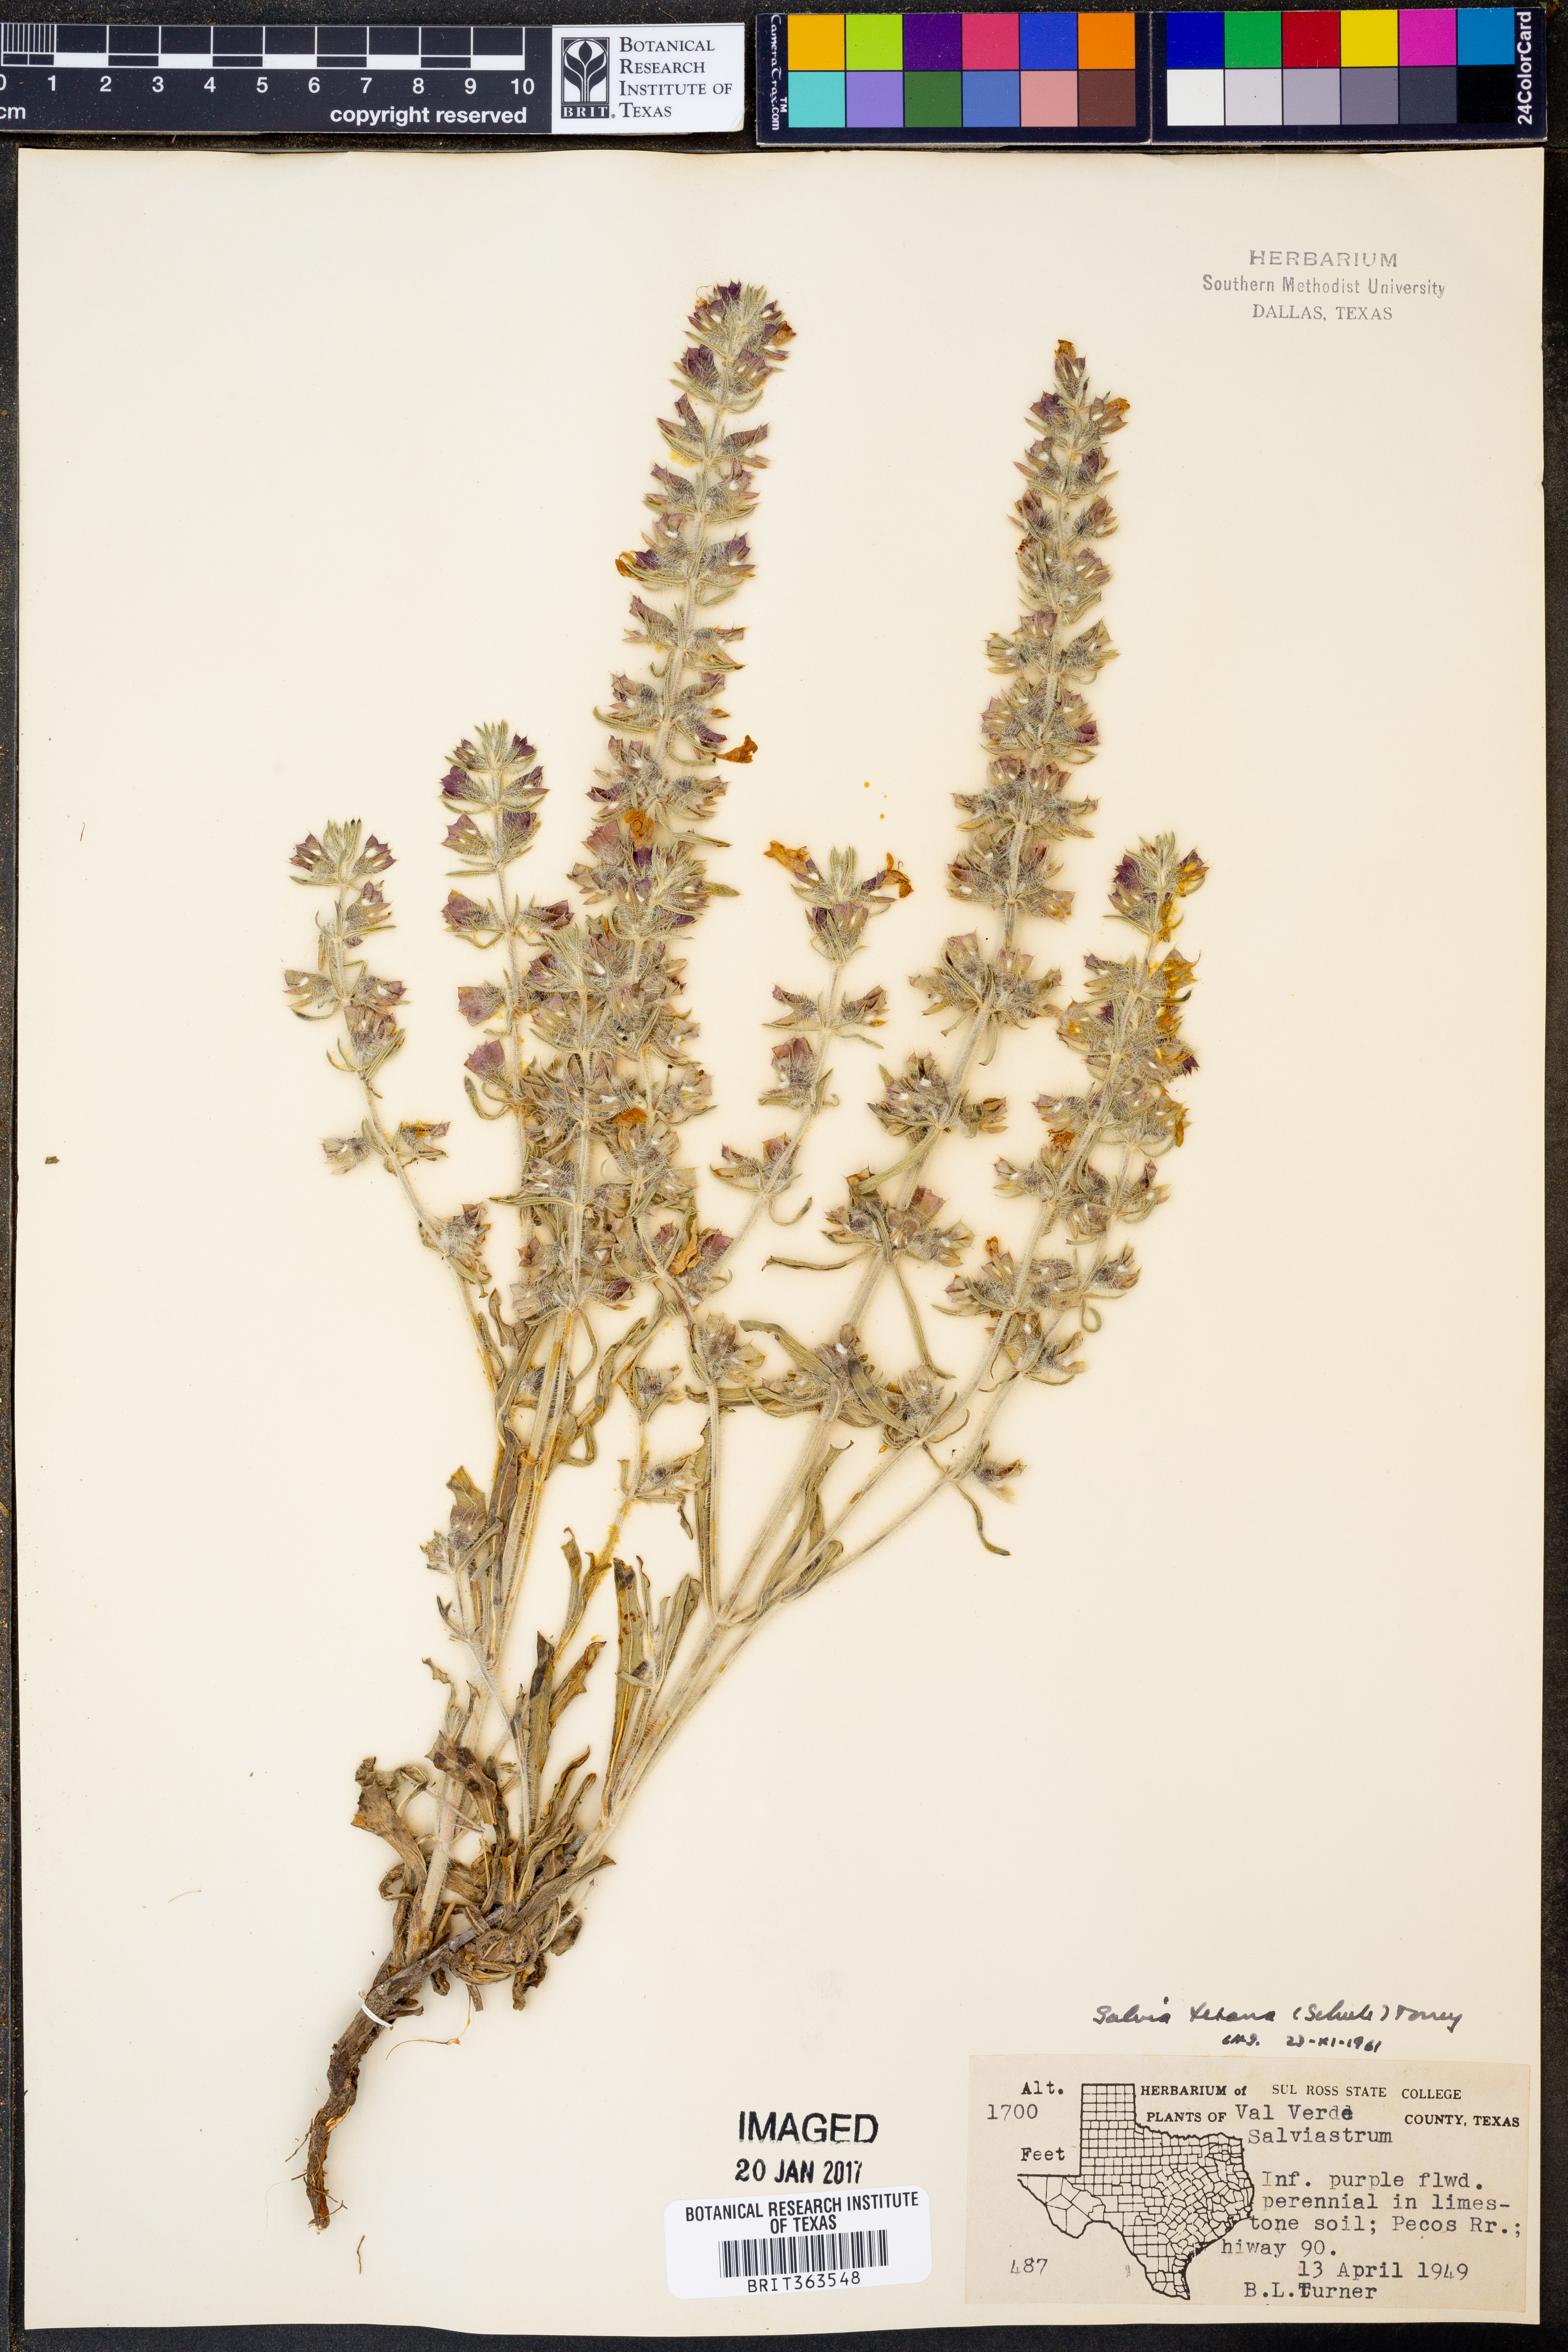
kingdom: Plantae
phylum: Tracheophyta
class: Magnoliopsida
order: Lamiales
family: Lamiaceae
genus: Salvia
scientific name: Salvia texana
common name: Texas sage
